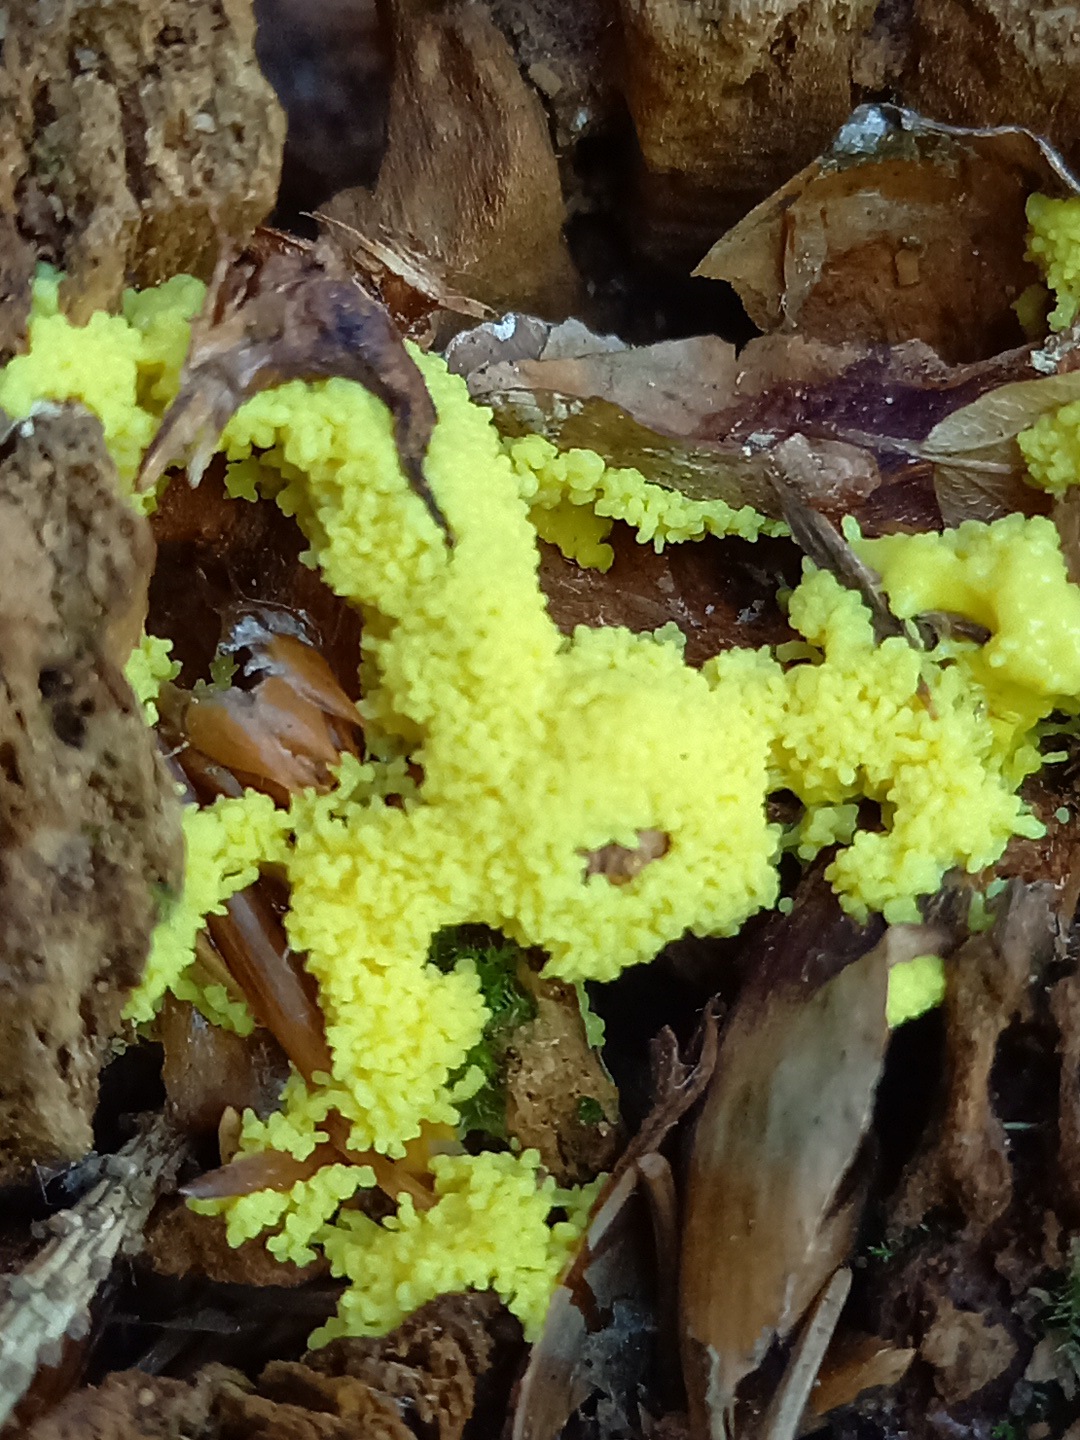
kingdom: Protozoa
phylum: Mycetozoa
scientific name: Mycetozoa
